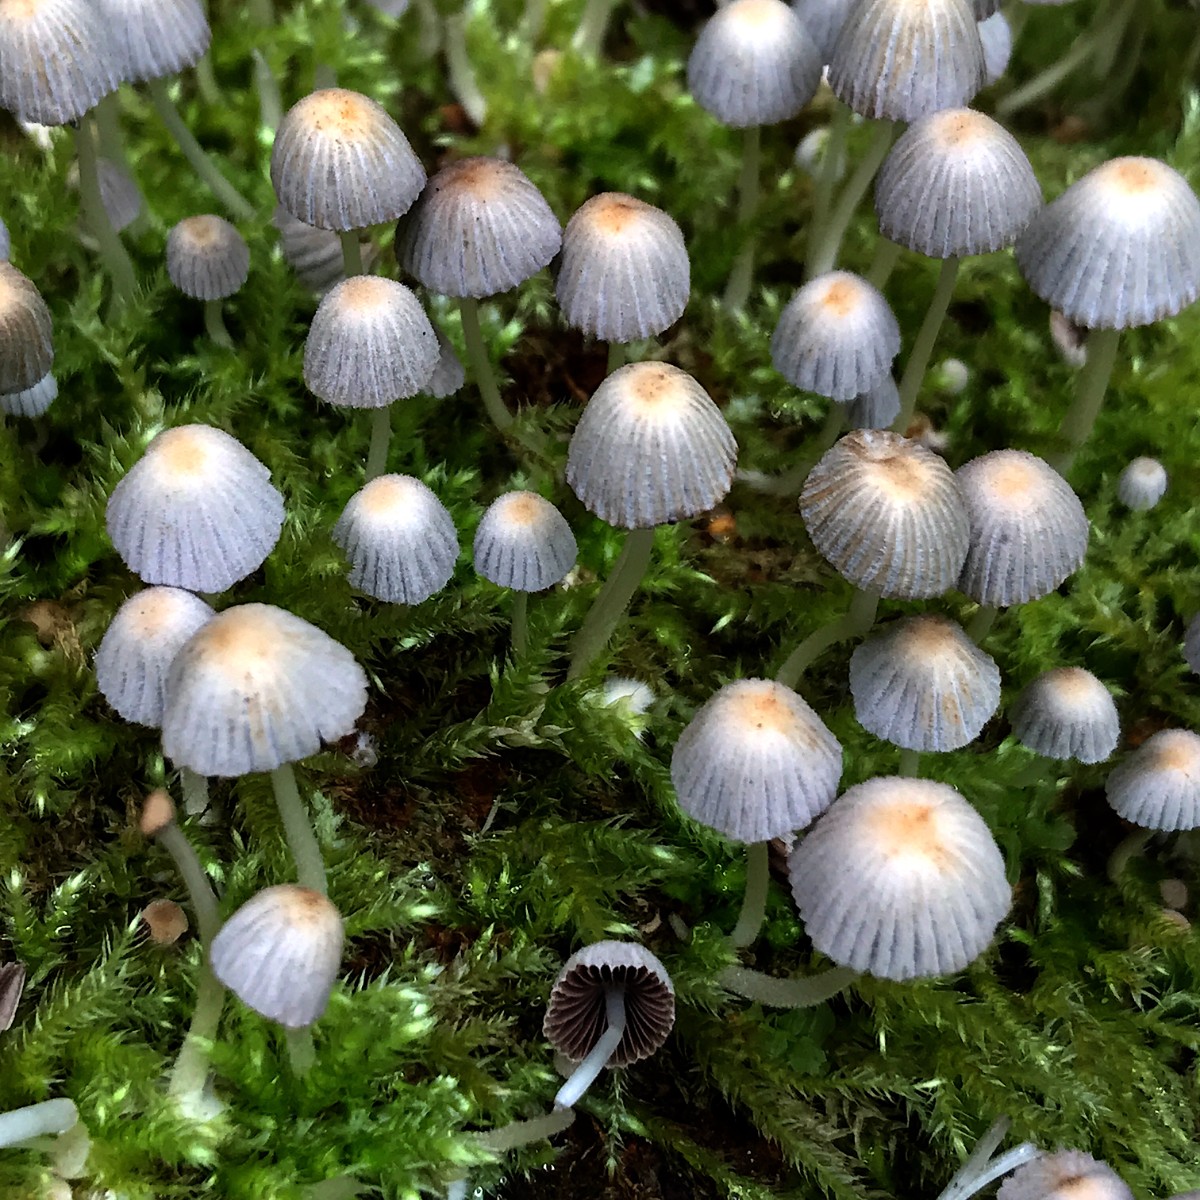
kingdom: Fungi
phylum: Basidiomycota
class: Agaricomycetes
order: Agaricales
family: Psathyrellaceae
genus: Coprinellus
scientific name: Coprinellus disseminatus
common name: bredsået blækhat
